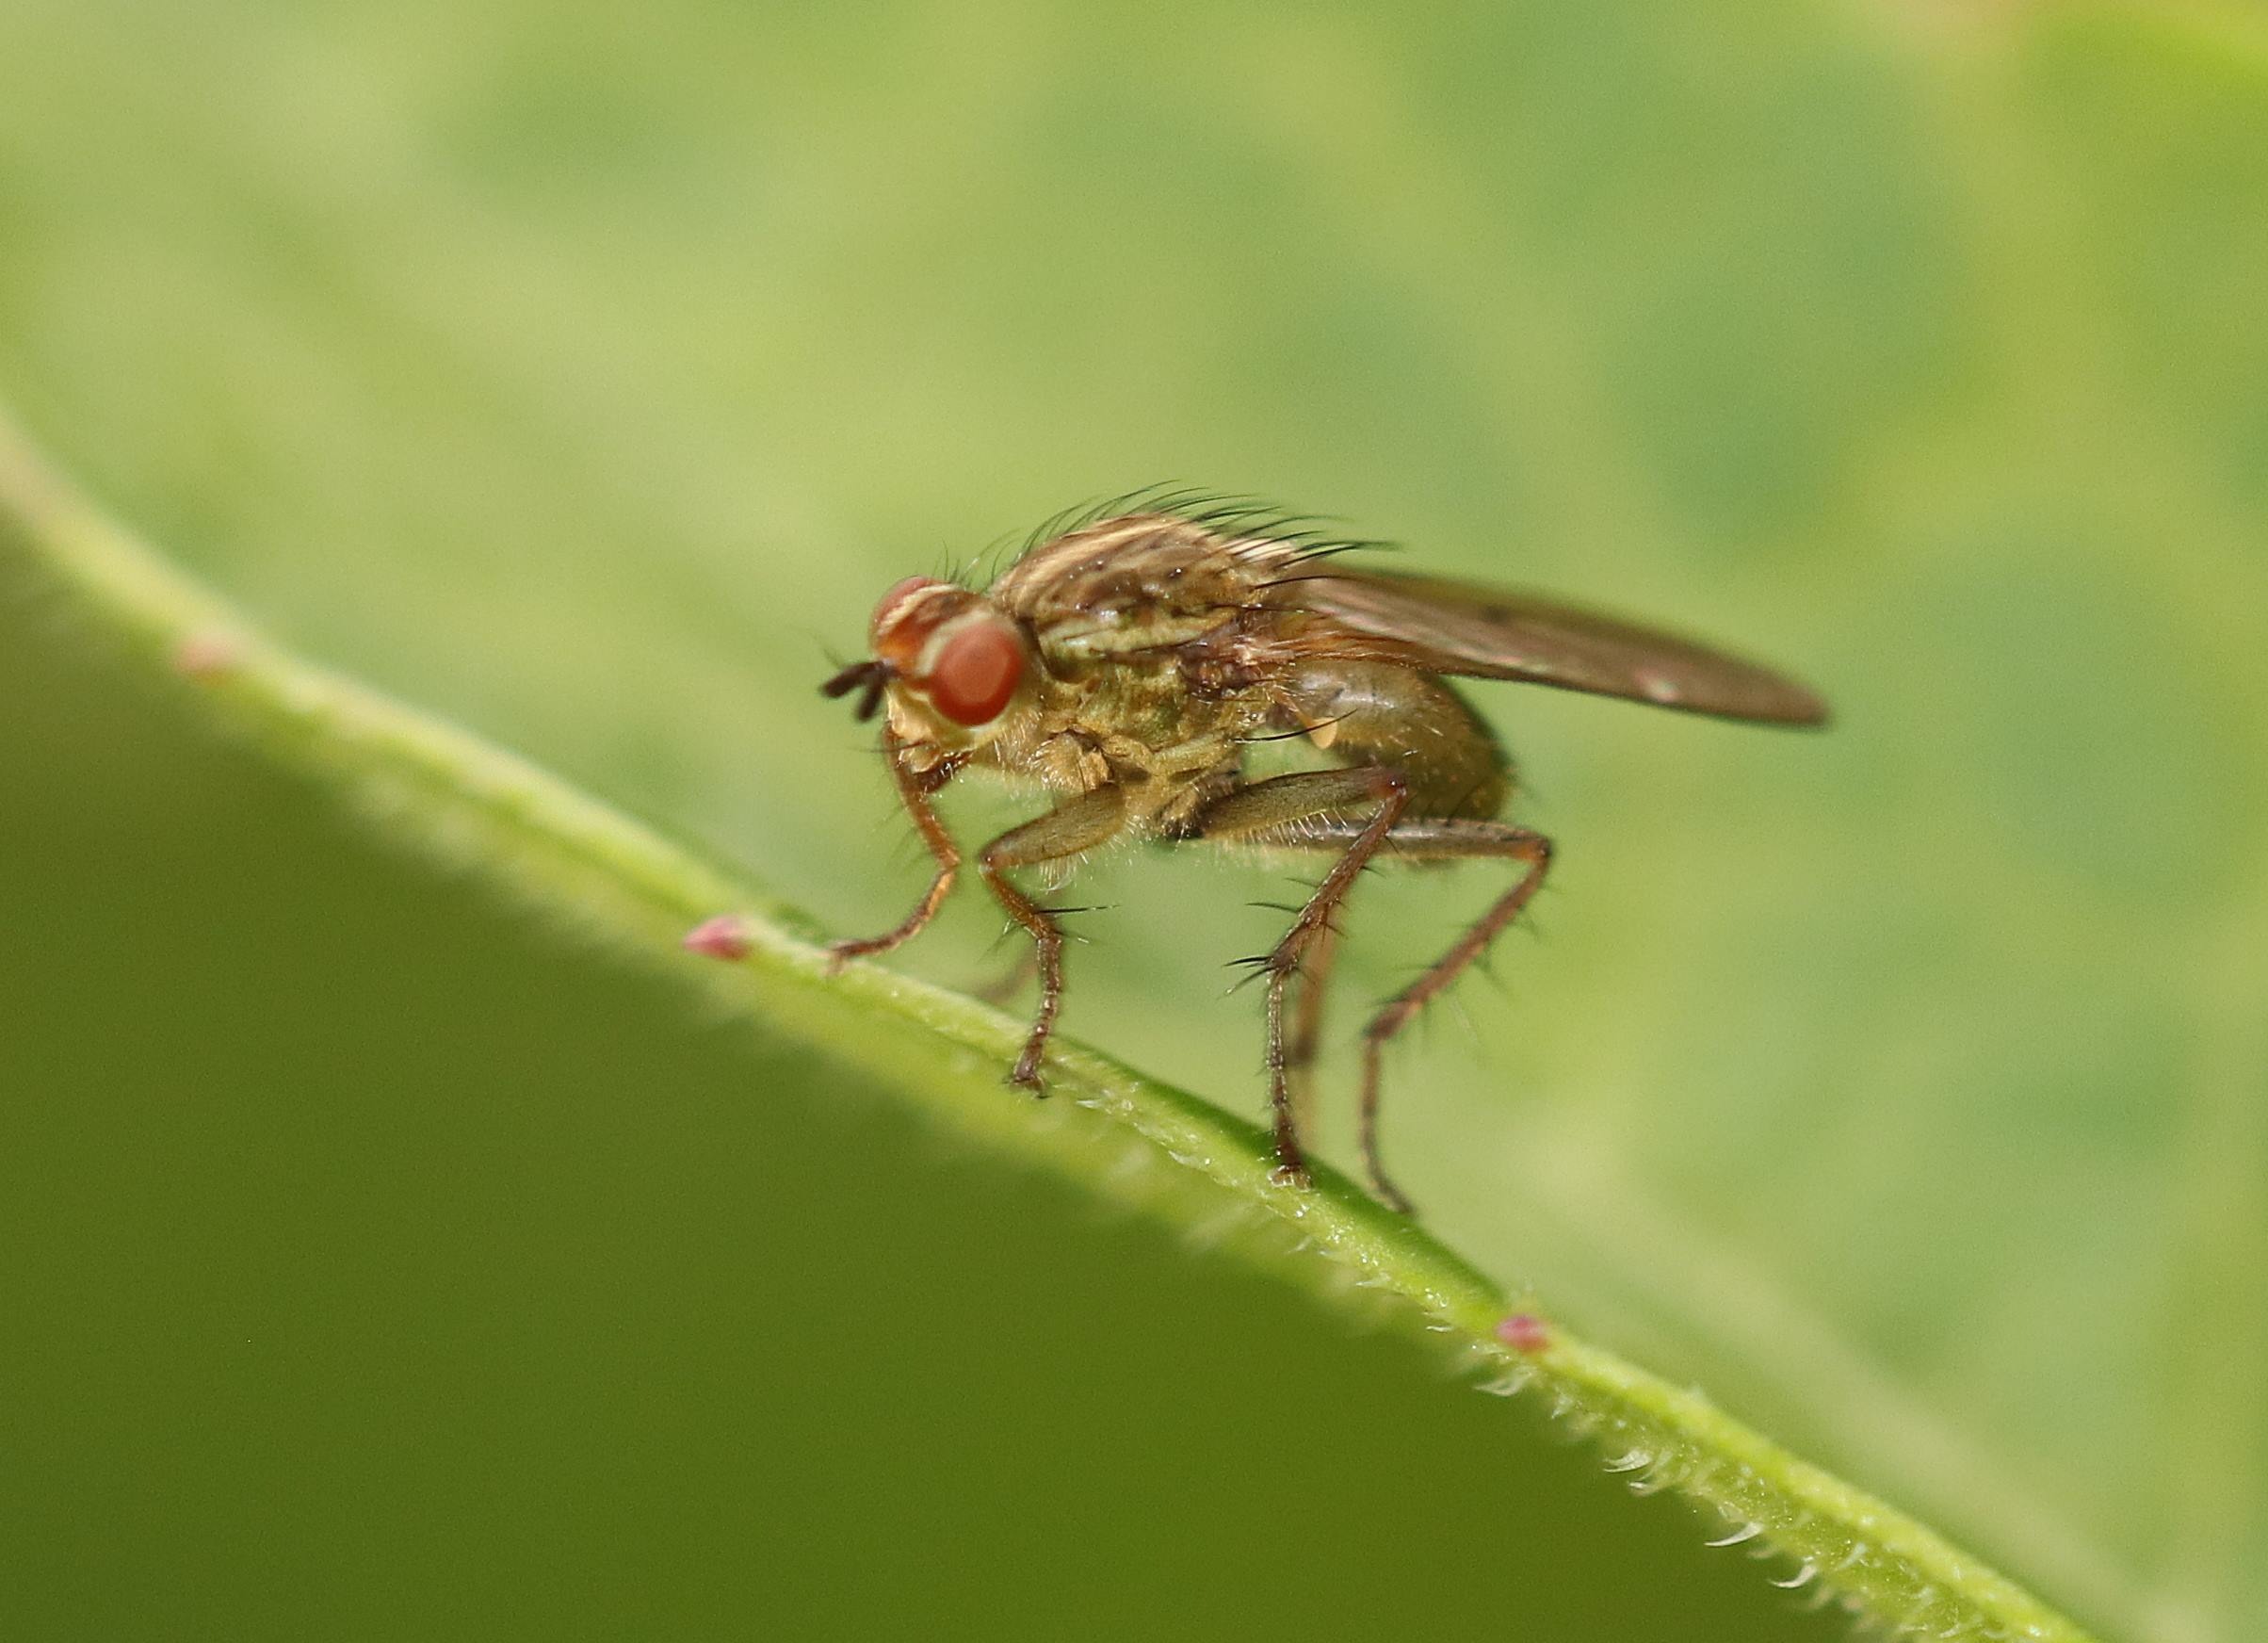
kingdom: Animalia
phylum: Arthropoda
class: Insecta
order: Diptera
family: Scathophagidae
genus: Scathophaga
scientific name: Scathophaga stercoraria
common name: Almindelig gødningsflue
